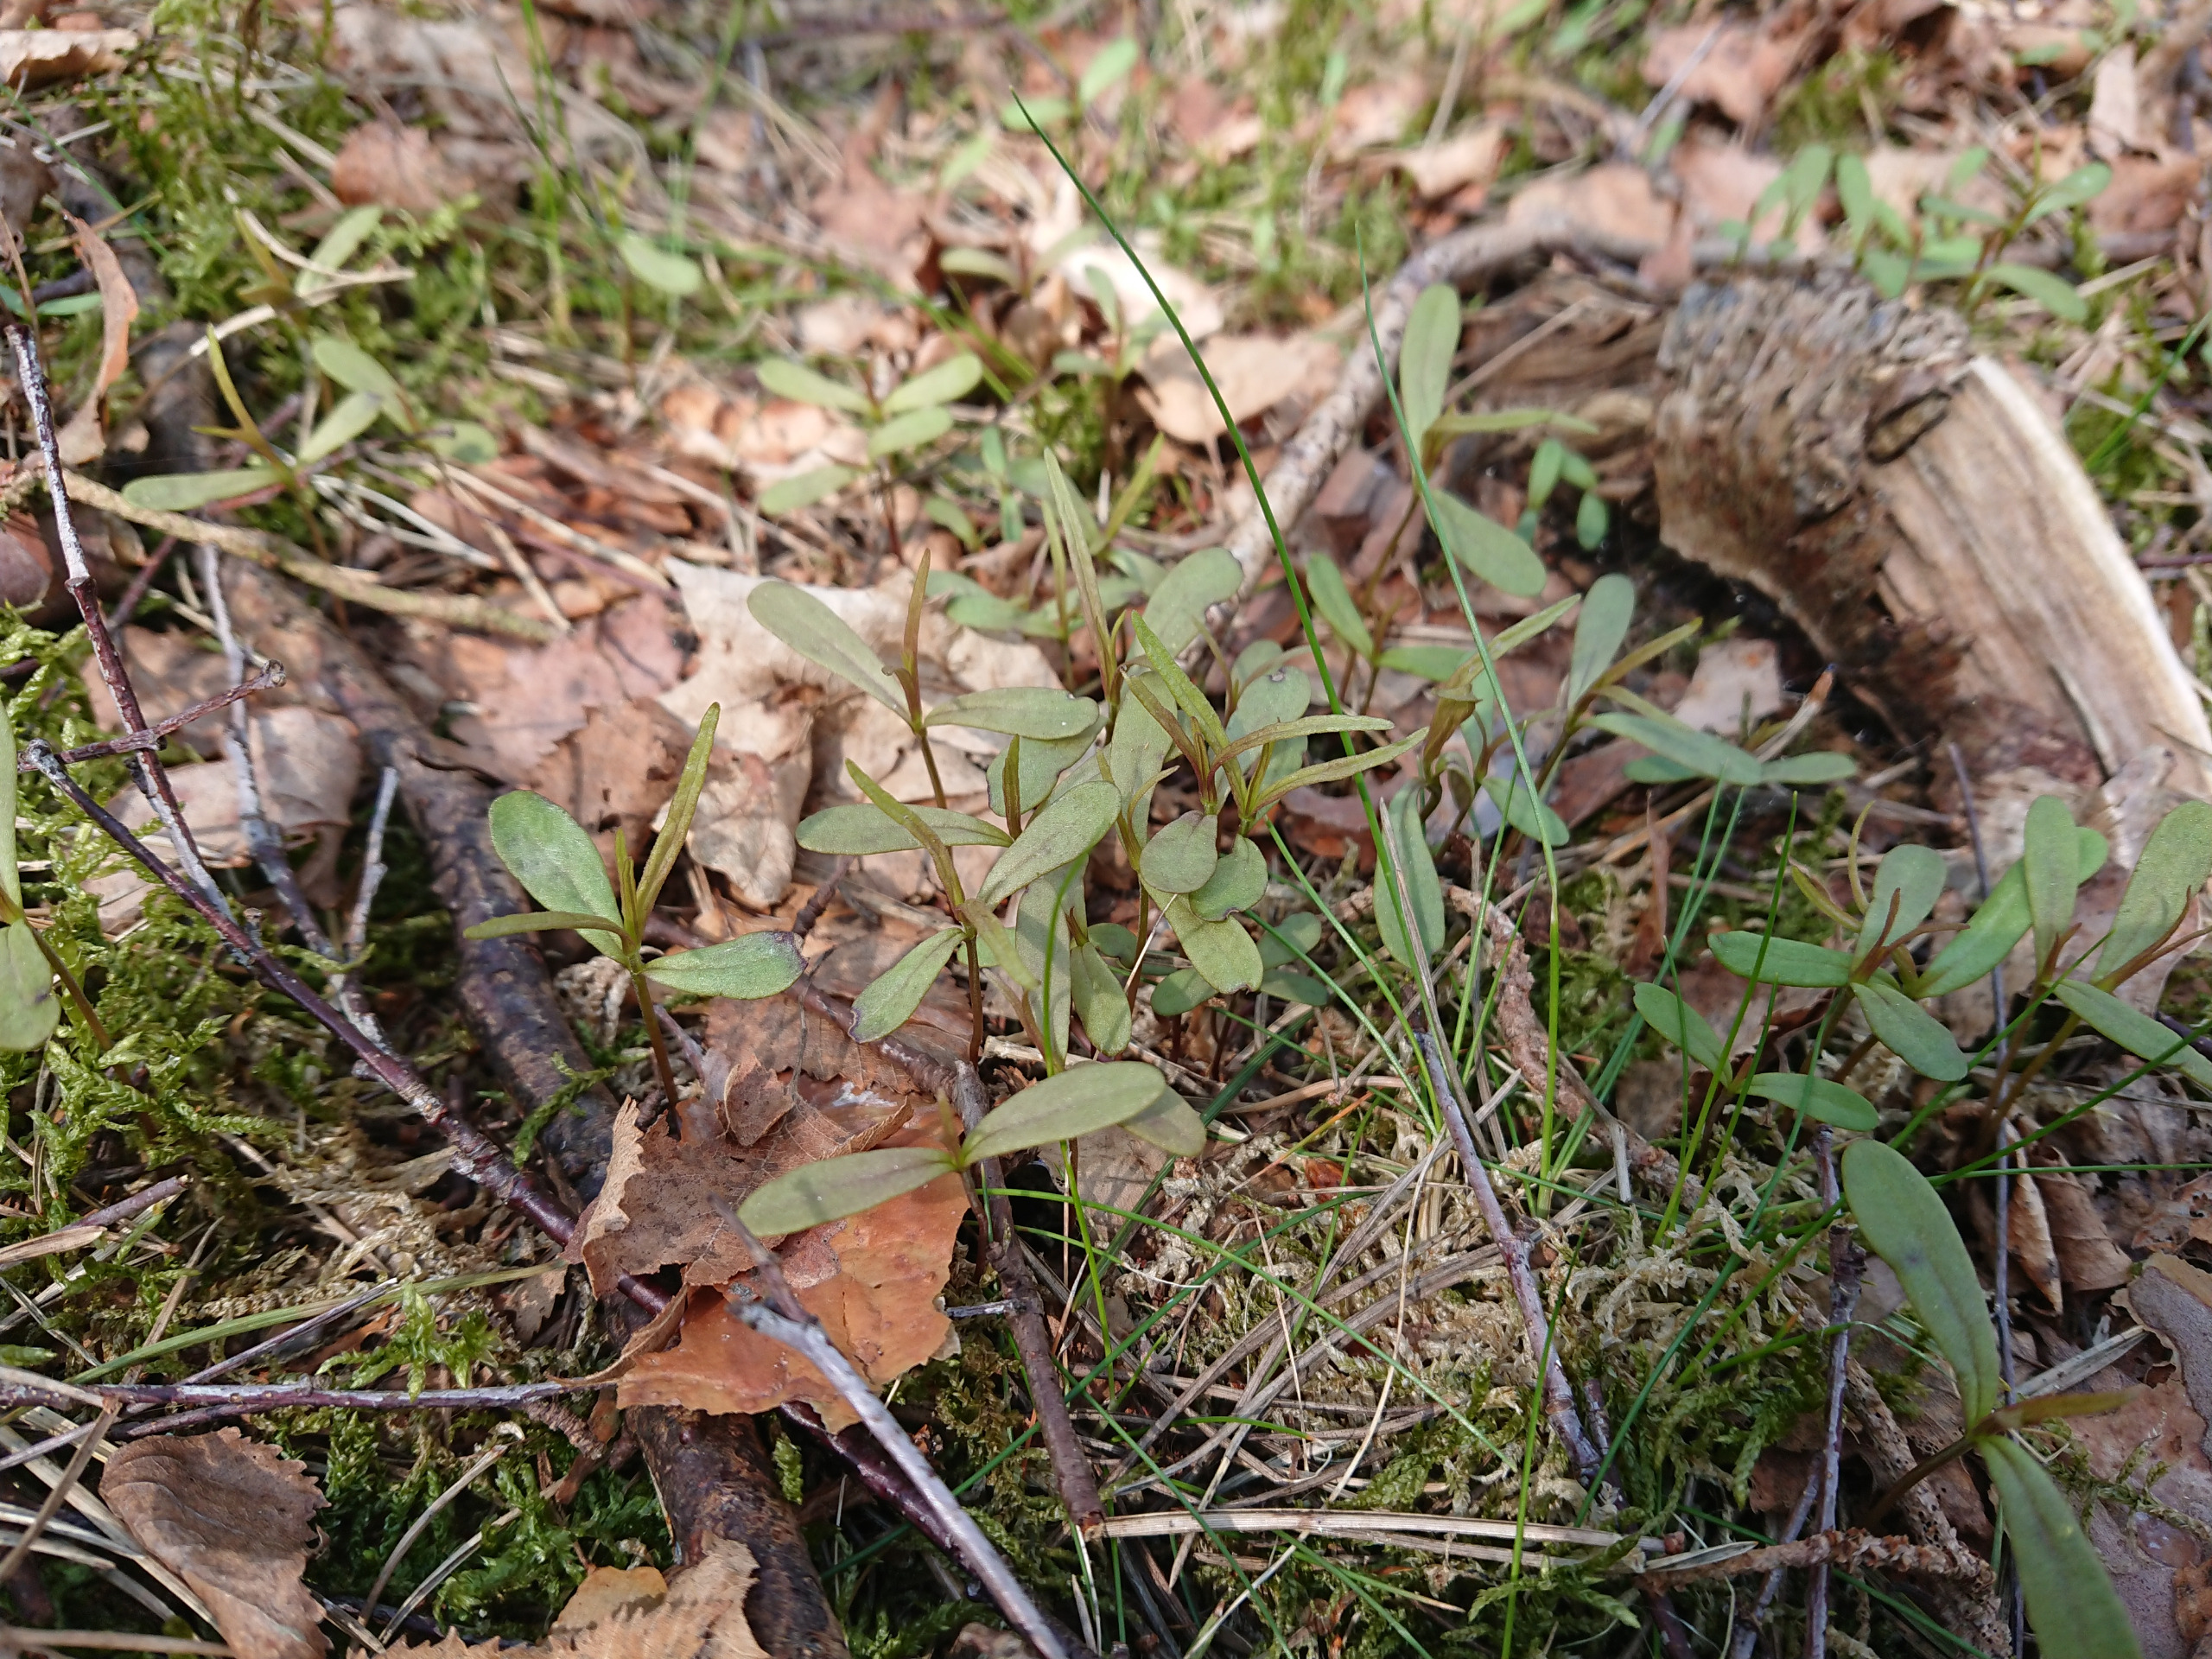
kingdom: Plantae
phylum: Tracheophyta
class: Magnoliopsida
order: Lamiales
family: Orobanchaceae
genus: Melampyrum
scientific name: Melampyrum pratense
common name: Almindelig kohvede
